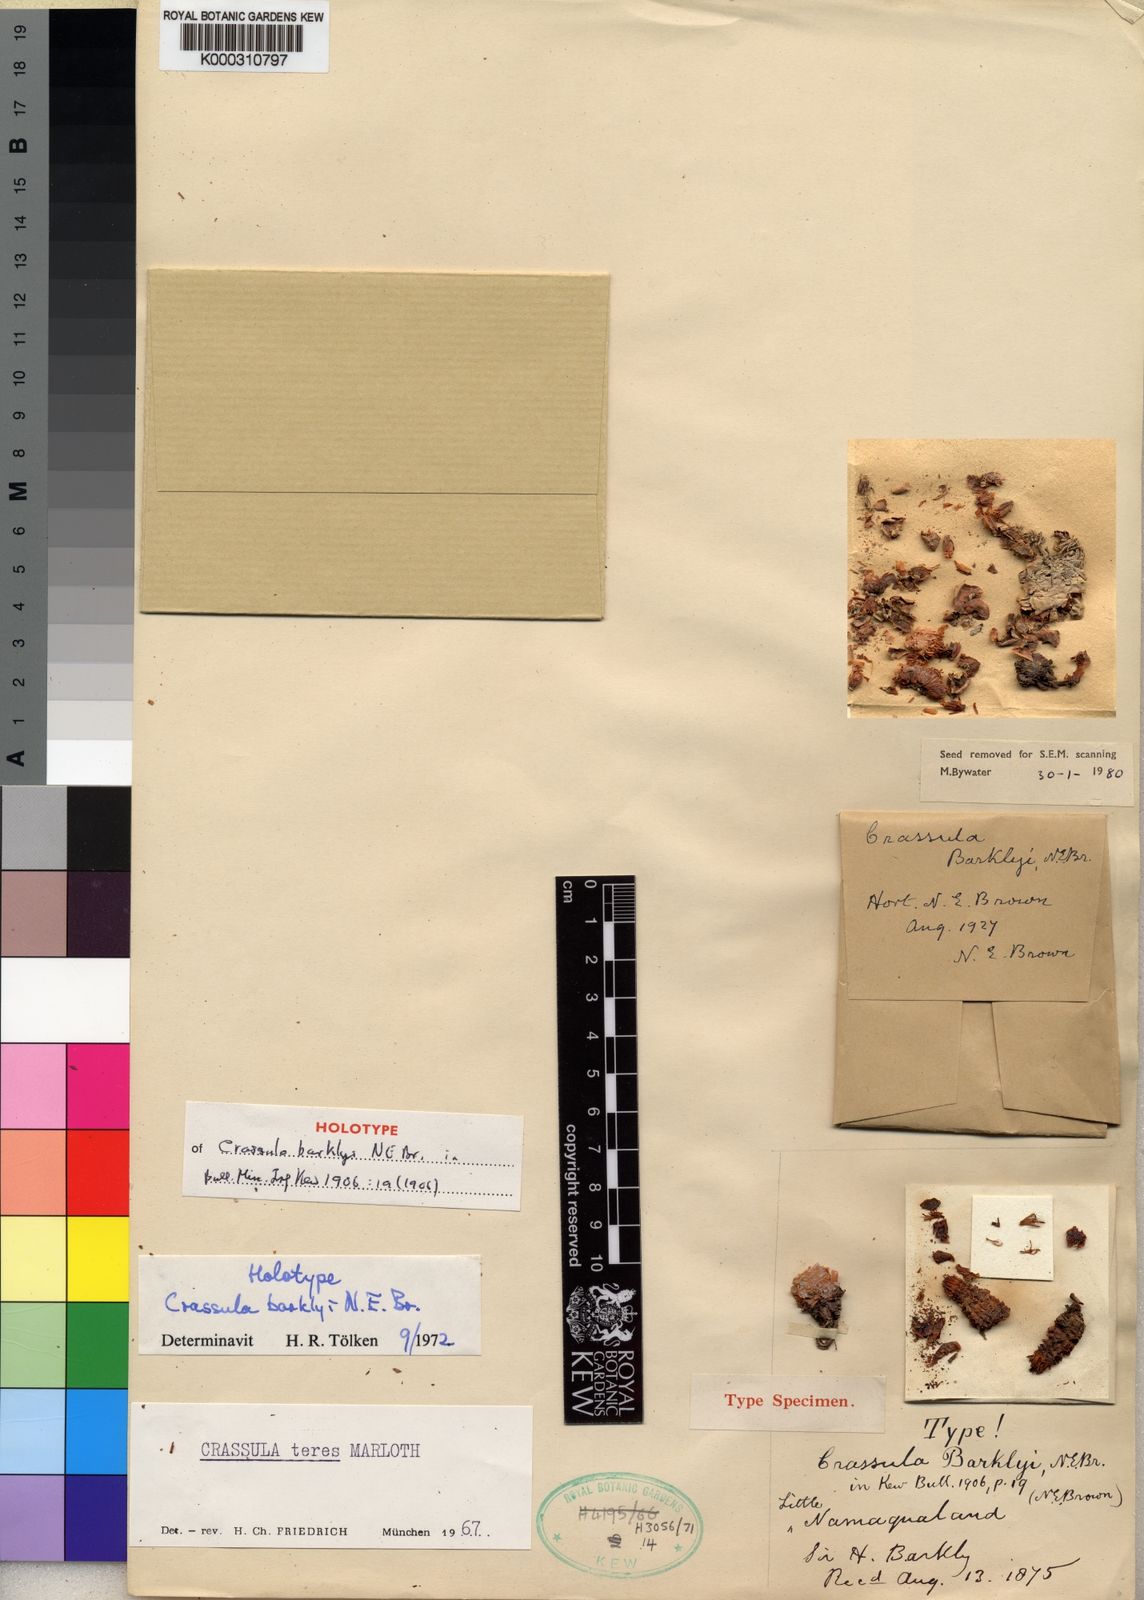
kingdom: Plantae
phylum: Tracheophyta
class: Magnoliopsida
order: Saxifragales
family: Crassulaceae
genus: Crassula
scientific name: Crassula barklyi
